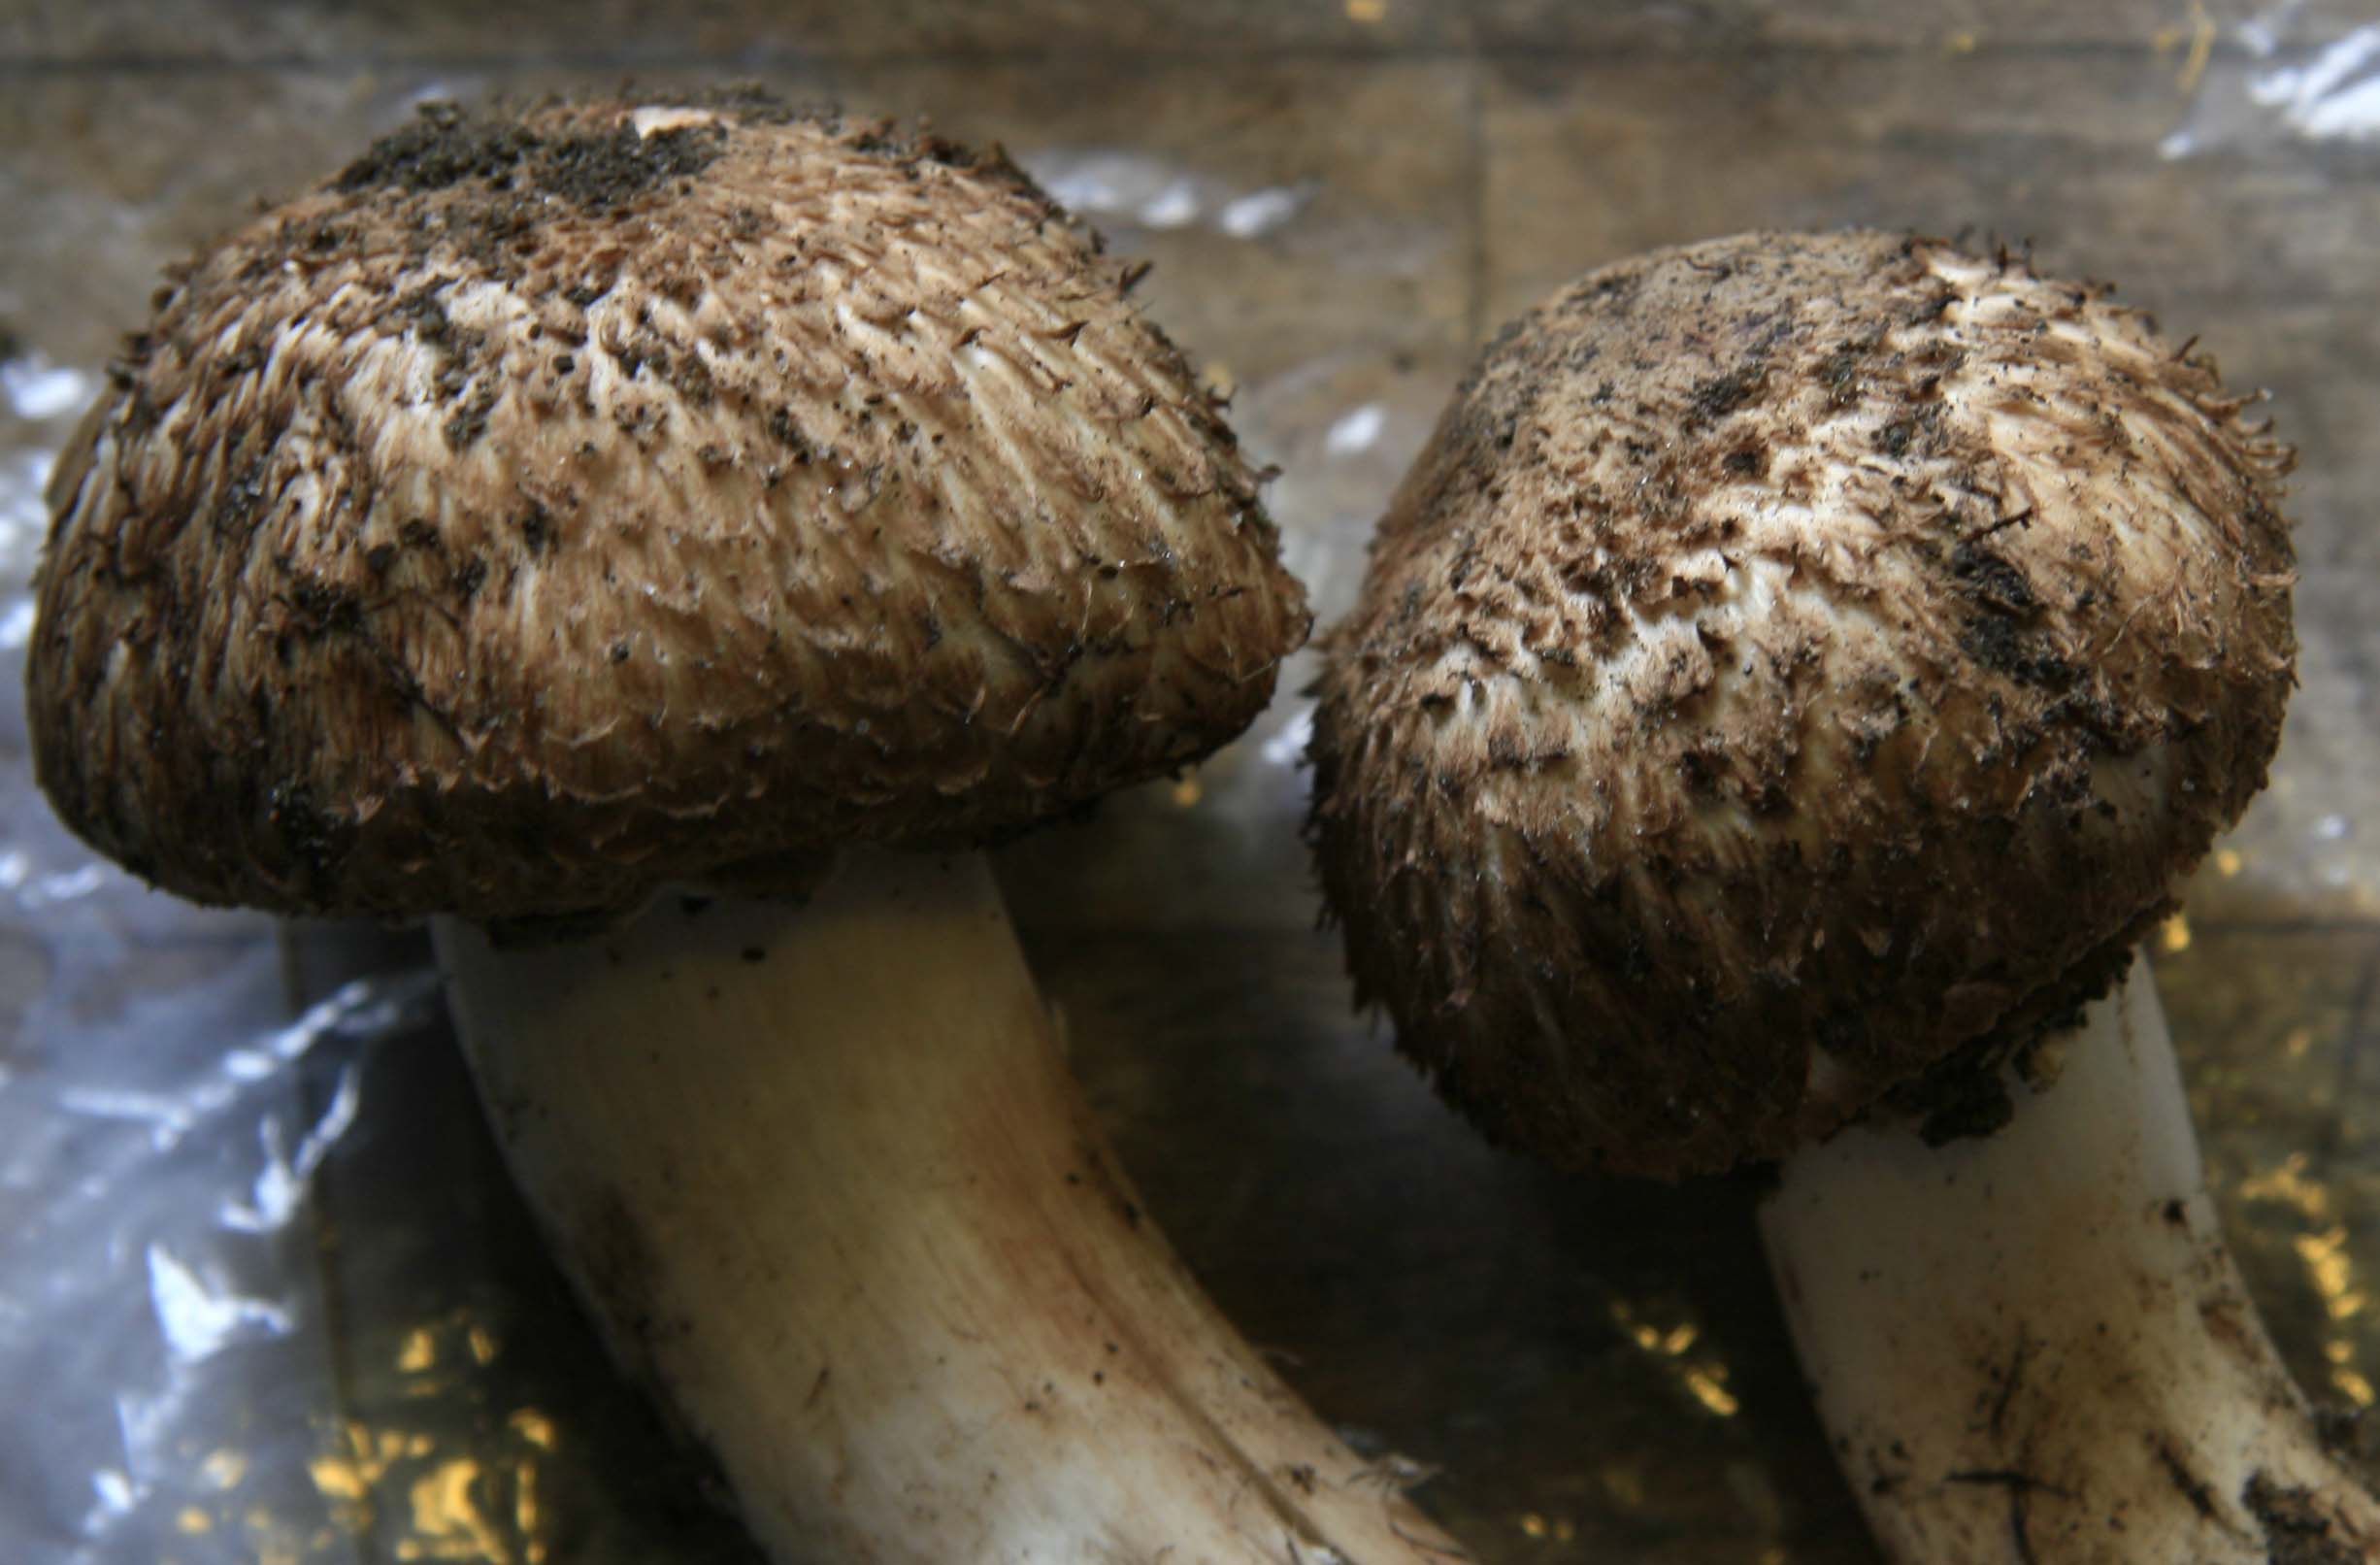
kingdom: Fungi
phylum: Basidiomycota
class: Agaricomycetes
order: Agaricales
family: Agaricaceae
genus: Agaricus
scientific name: Agaricus bohusii
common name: krumskællet champignon
